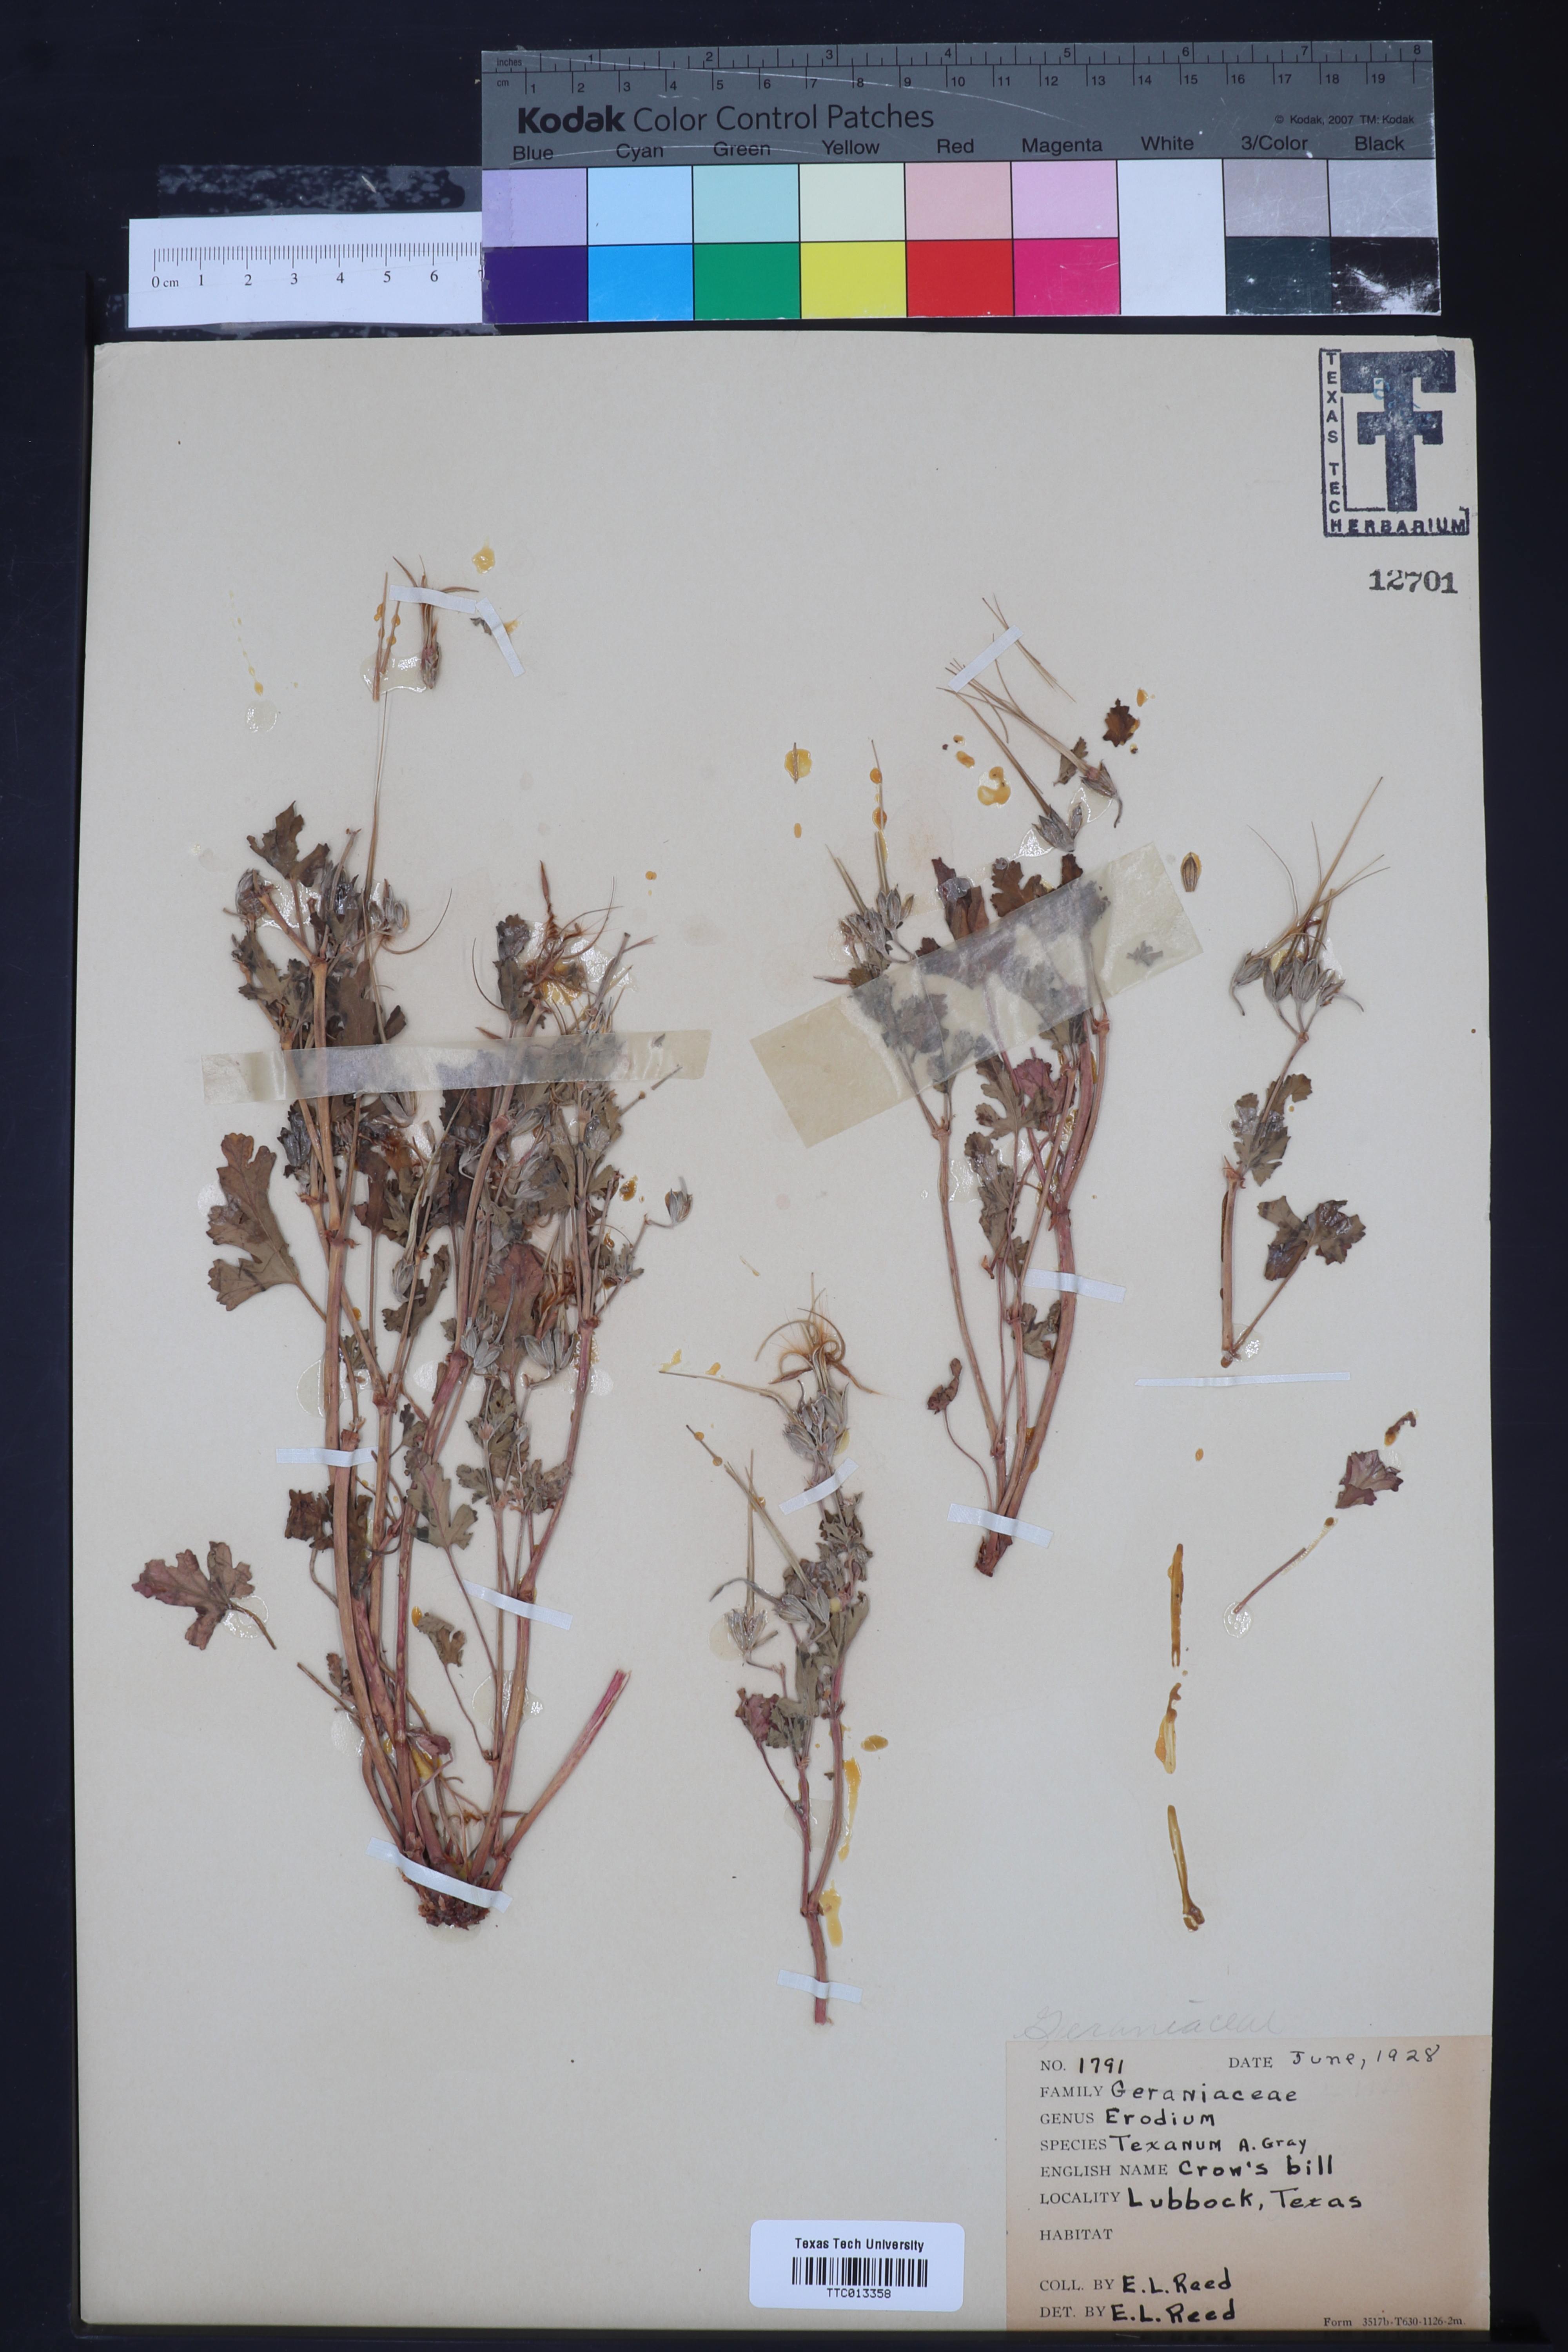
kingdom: Plantae
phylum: Tracheophyta
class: Magnoliopsida
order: Geraniales
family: Geraniaceae
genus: Erodium
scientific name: Erodium texanum
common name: Texas stork's-bill
